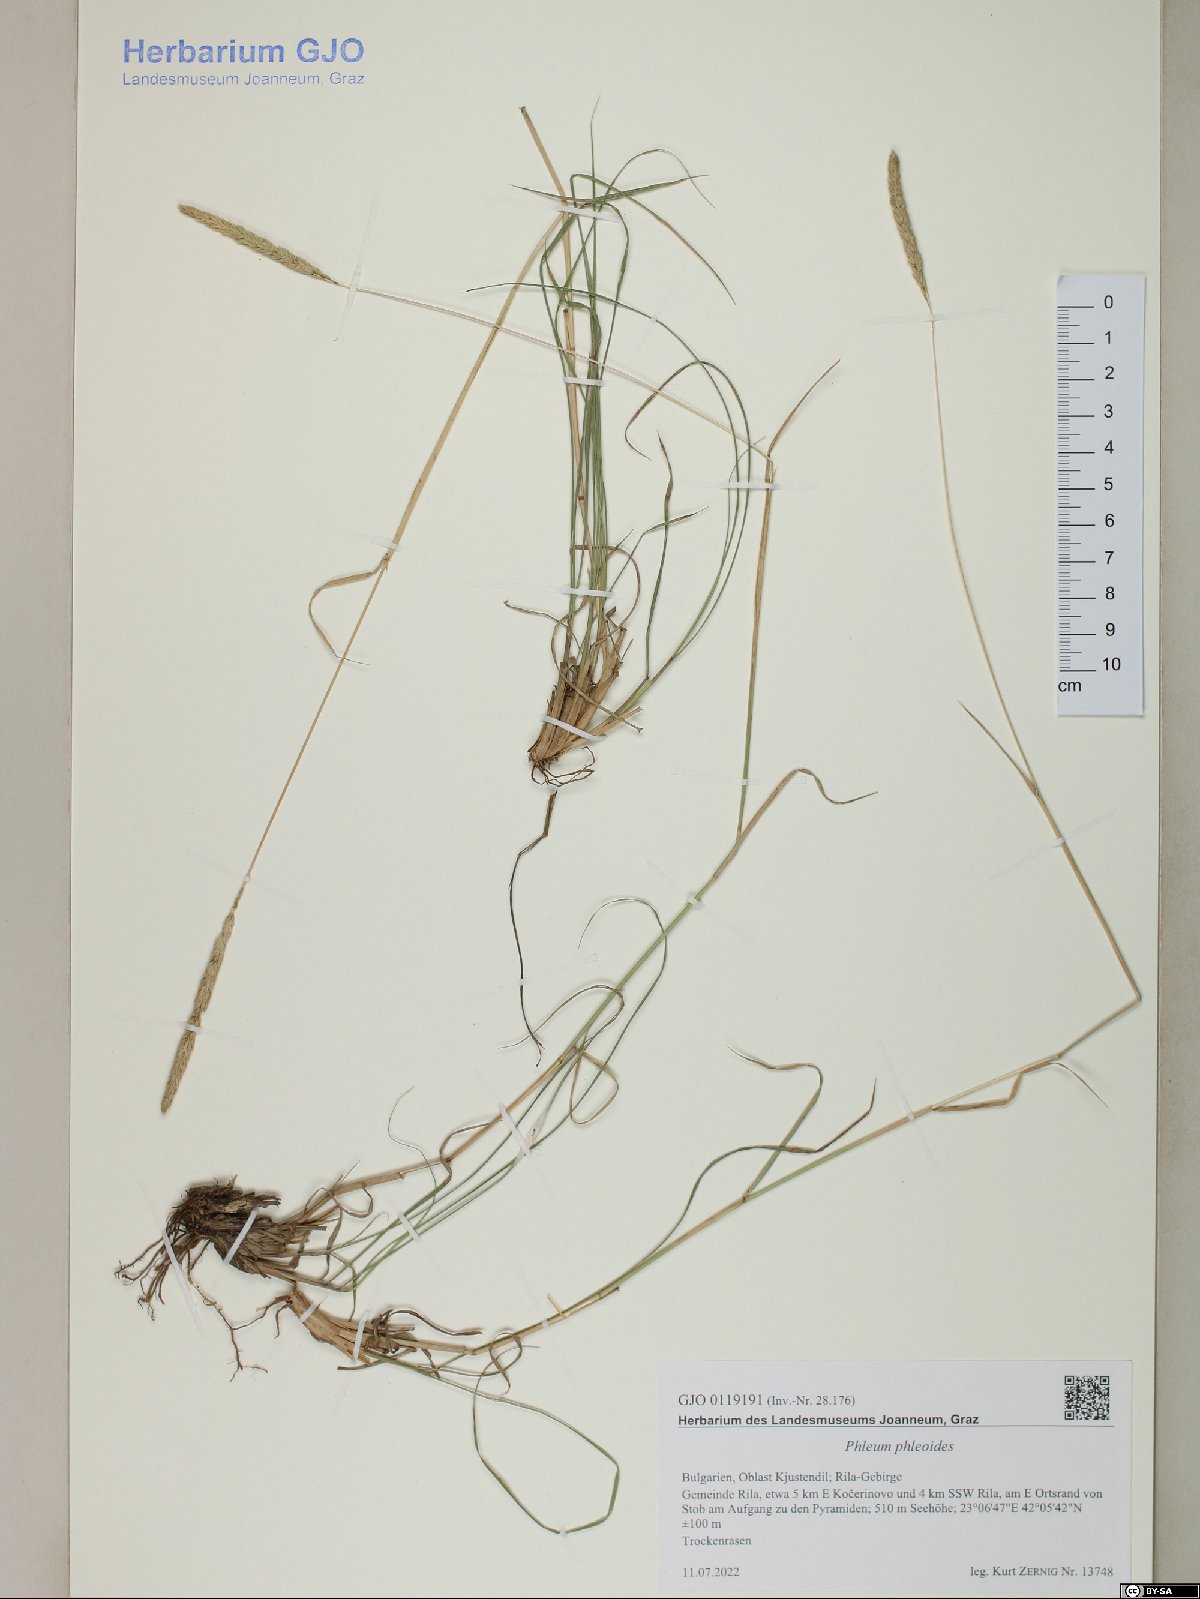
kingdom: Plantae
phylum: Tracheophyta
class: Liliopsida
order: Poales
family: Poaceae
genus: Phleum
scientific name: Phleum phleoides
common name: Purple-stem cat's-tail
